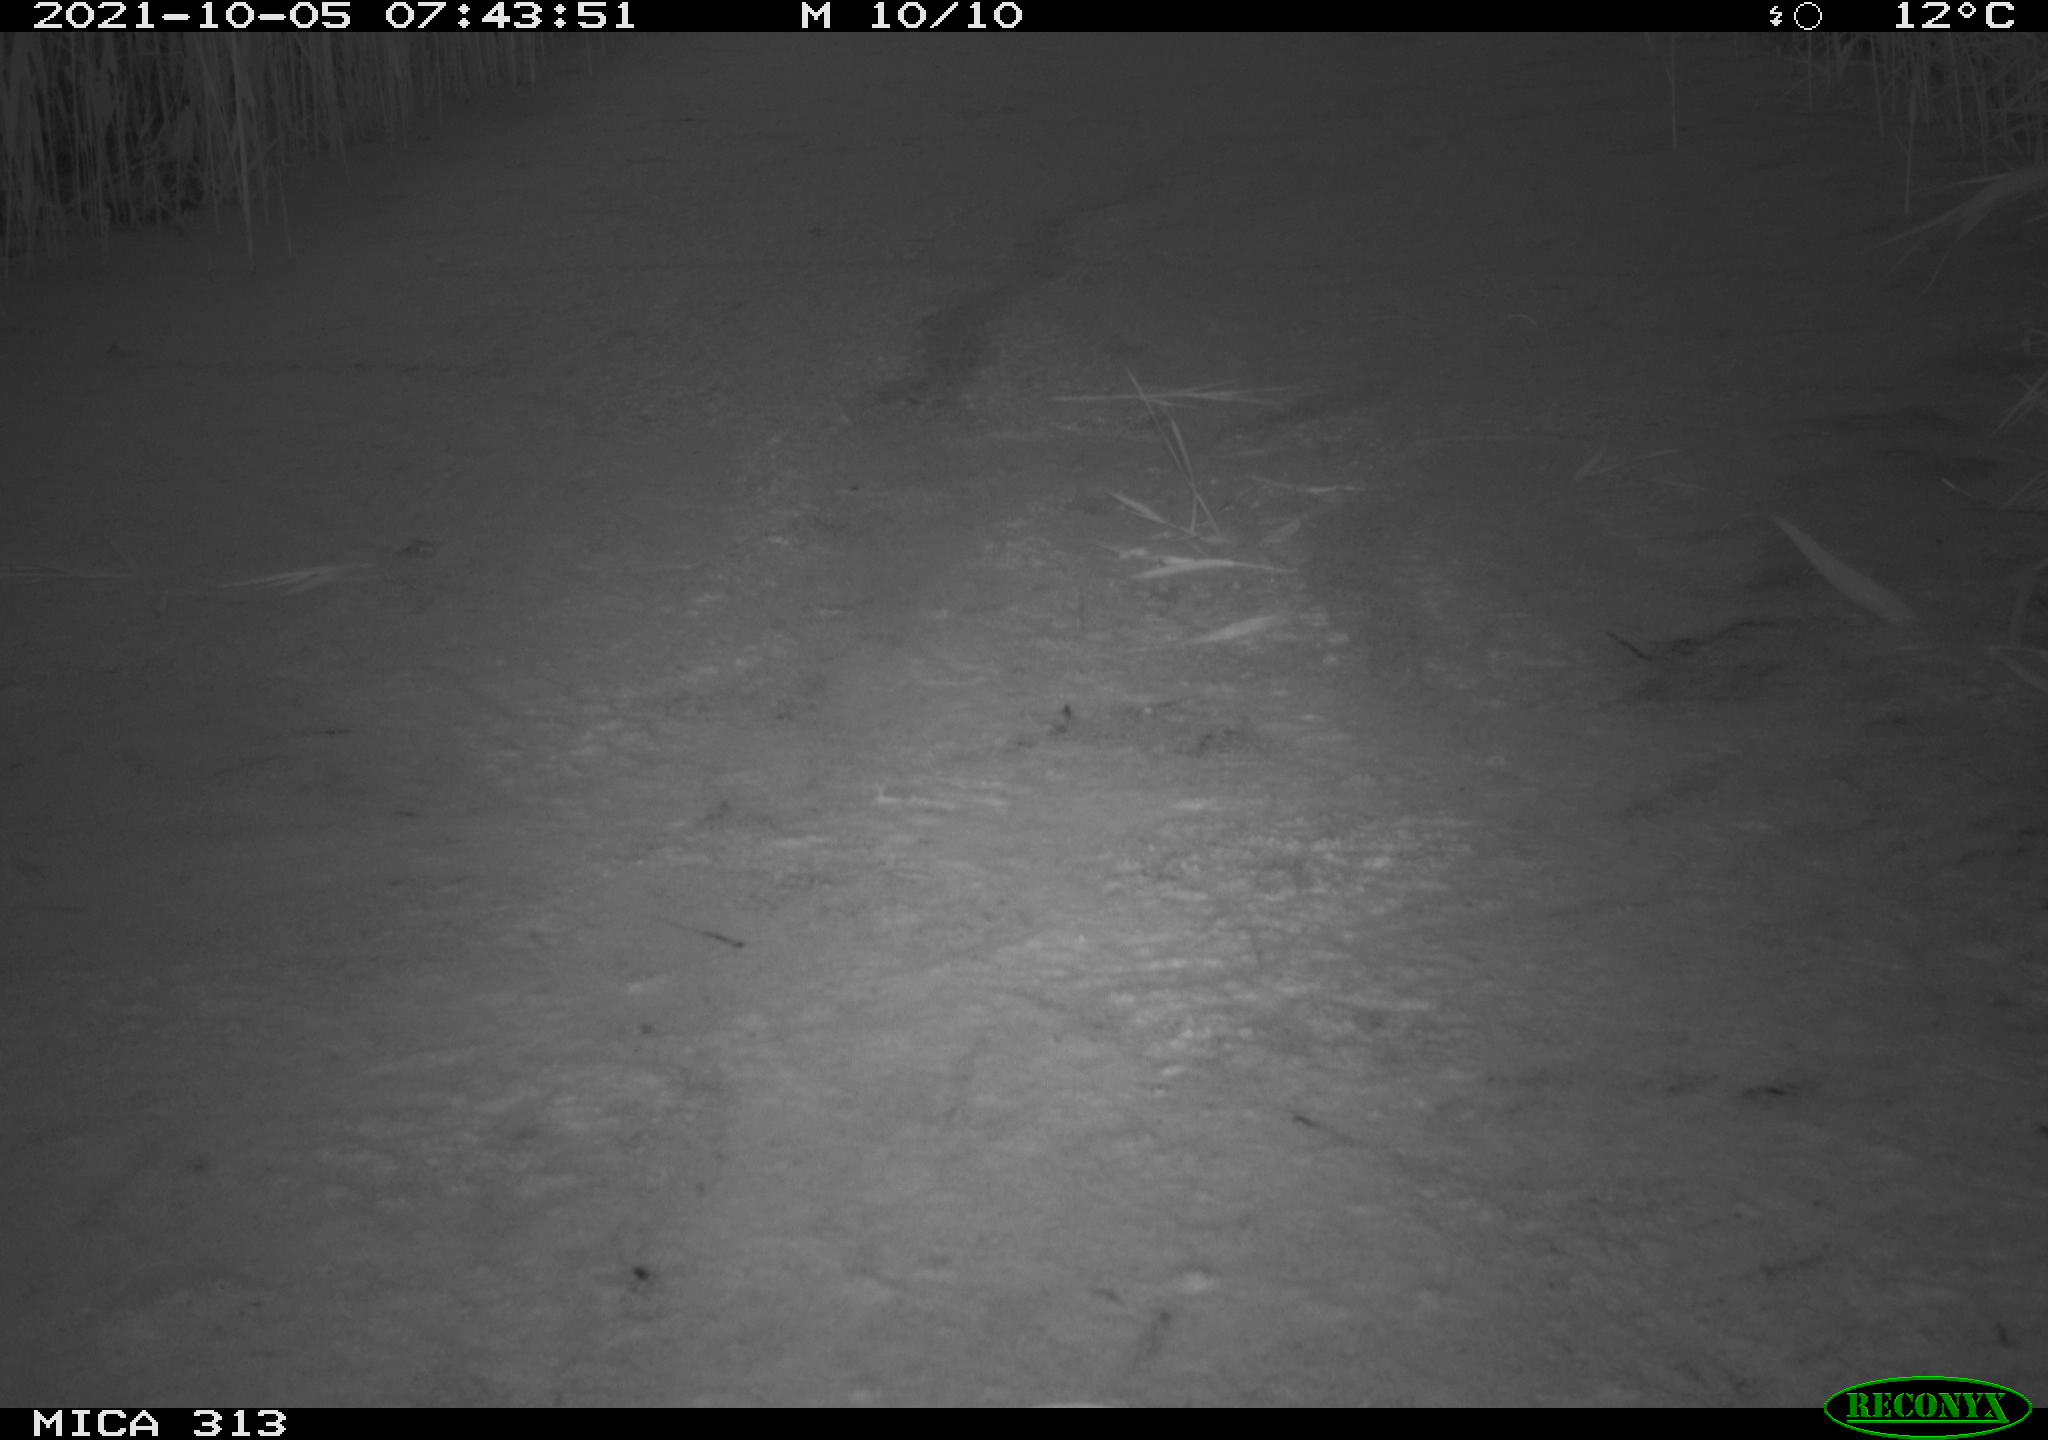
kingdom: Animalia
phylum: Chordata
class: Aves
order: Gruiformes
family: Rallidae
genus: Fulica
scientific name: Fulica atra
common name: Eurasian coot
